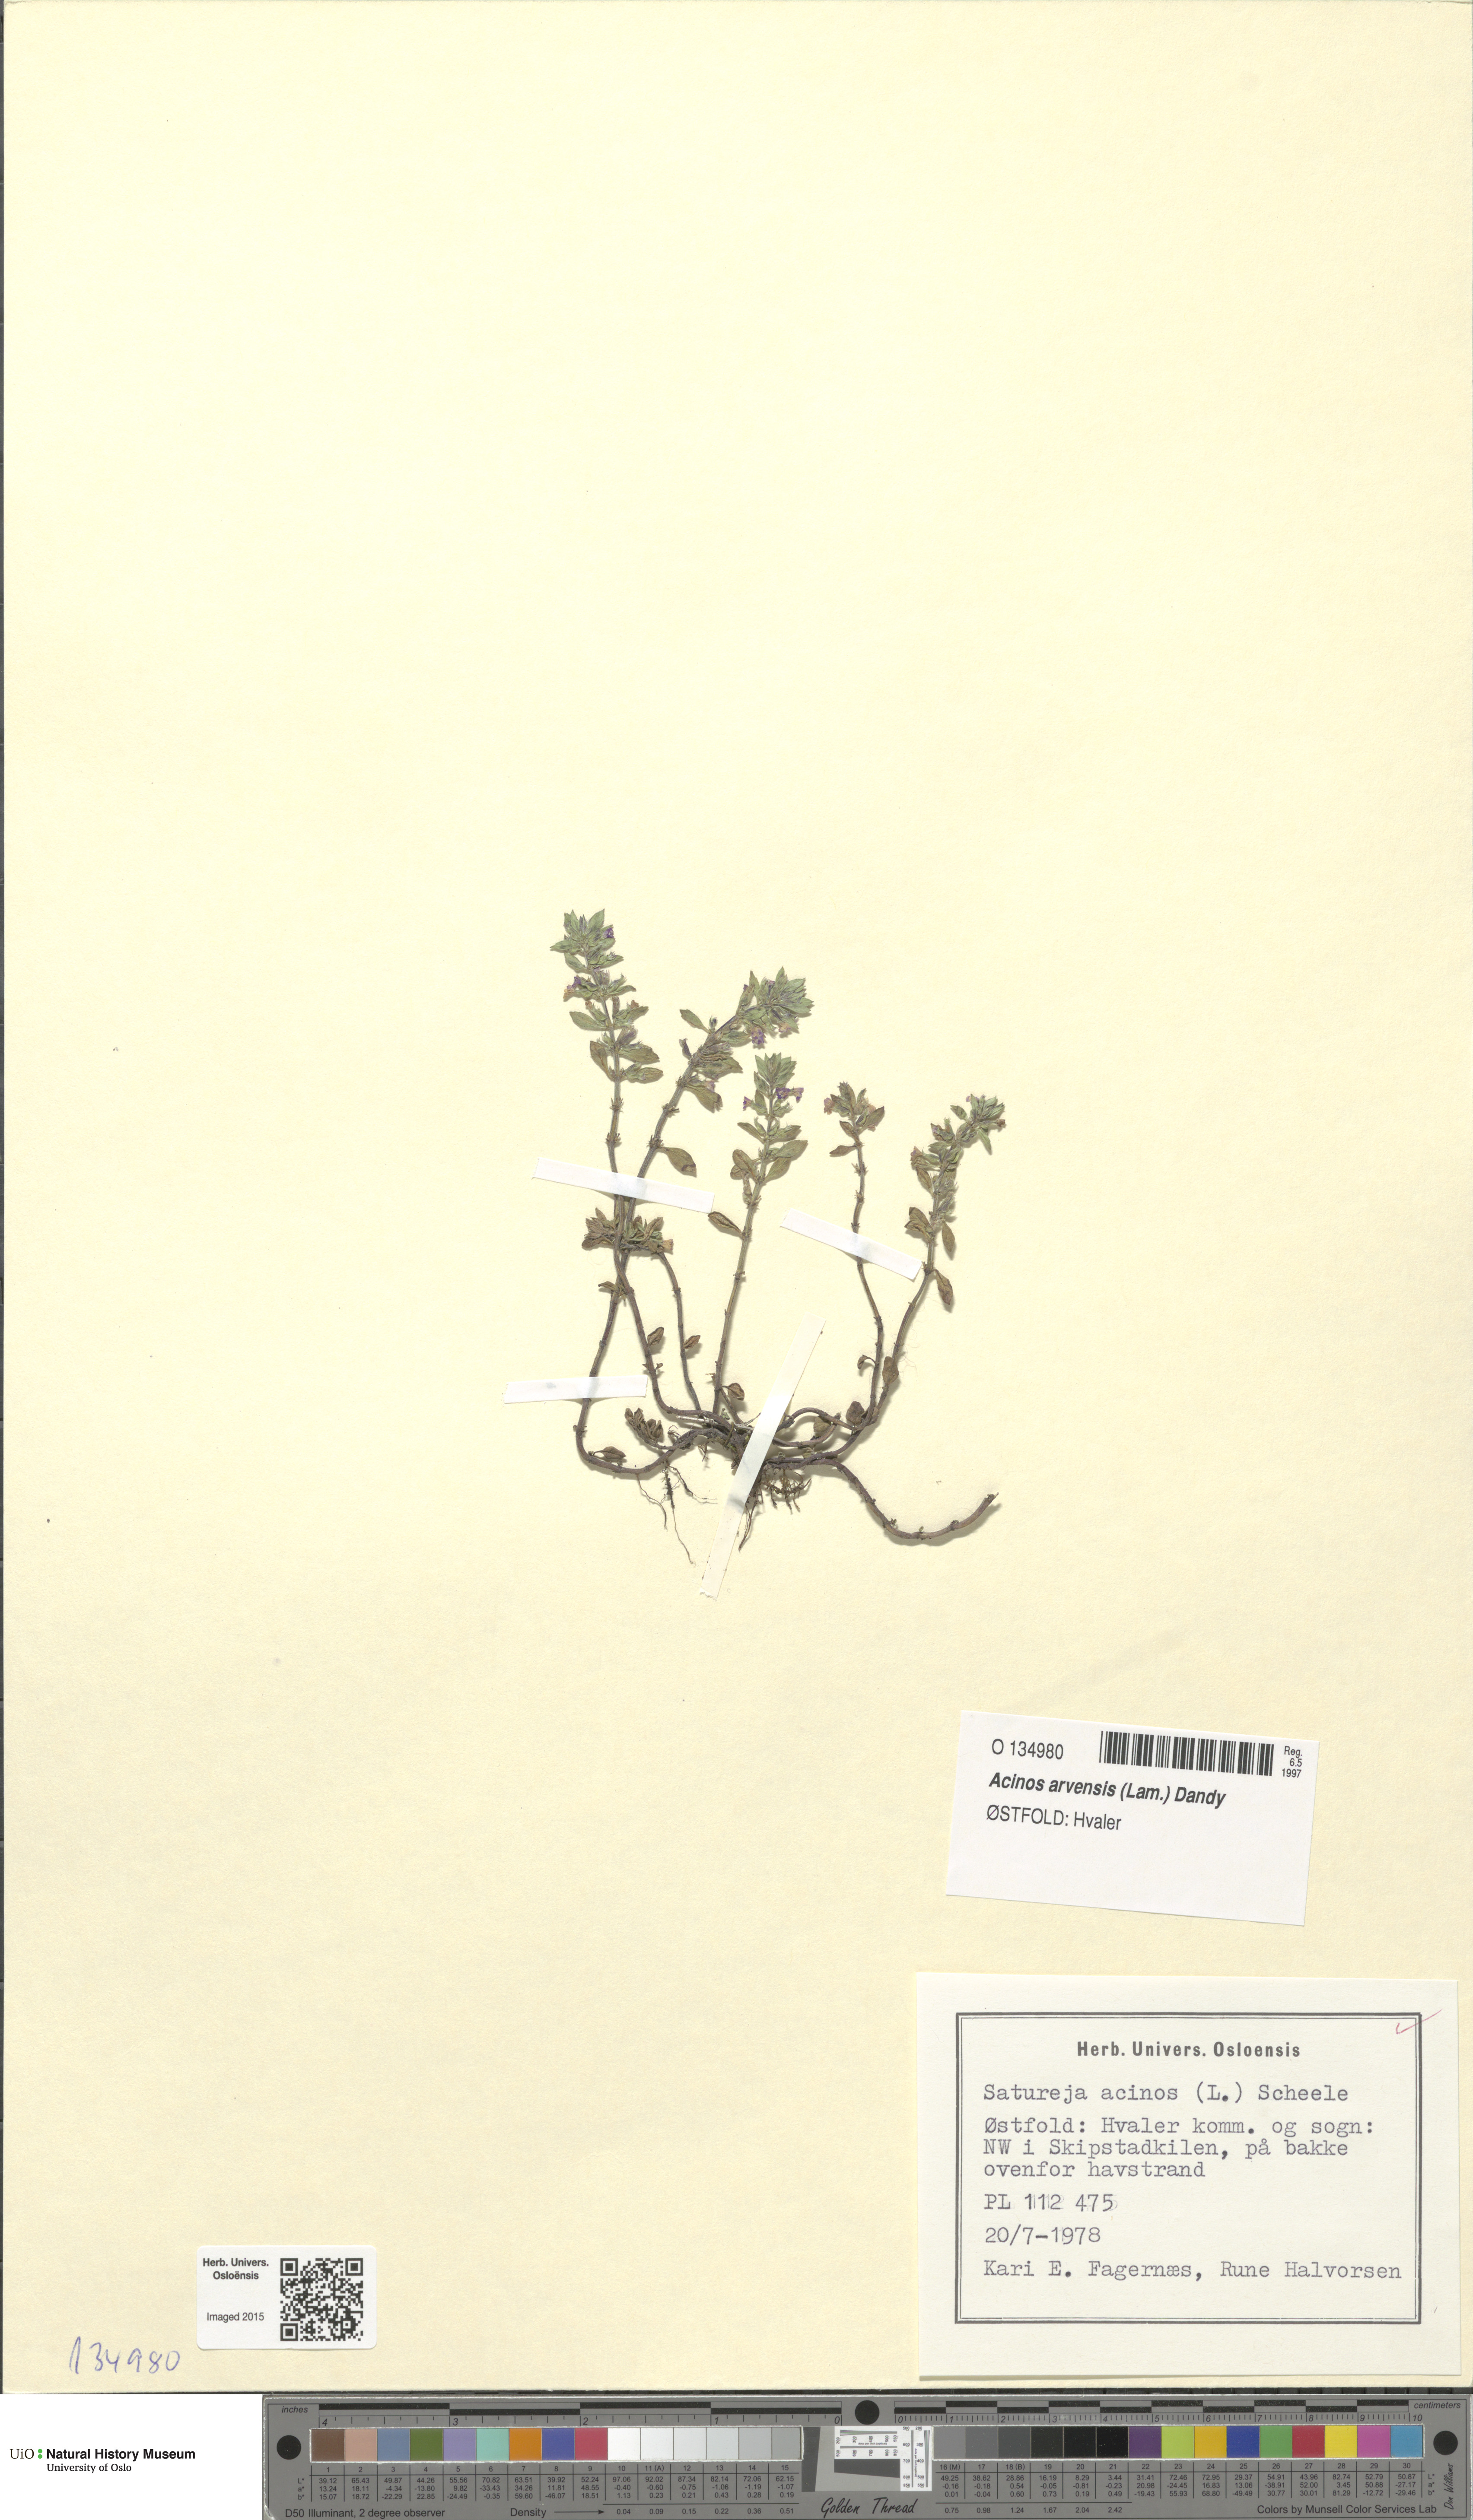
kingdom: Plantae
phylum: Tracheophyta
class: Magnoliopsida
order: Lamiales
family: Lamiaceae
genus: Clinopodium
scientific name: Clinopodium acinos
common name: Basil thyme
